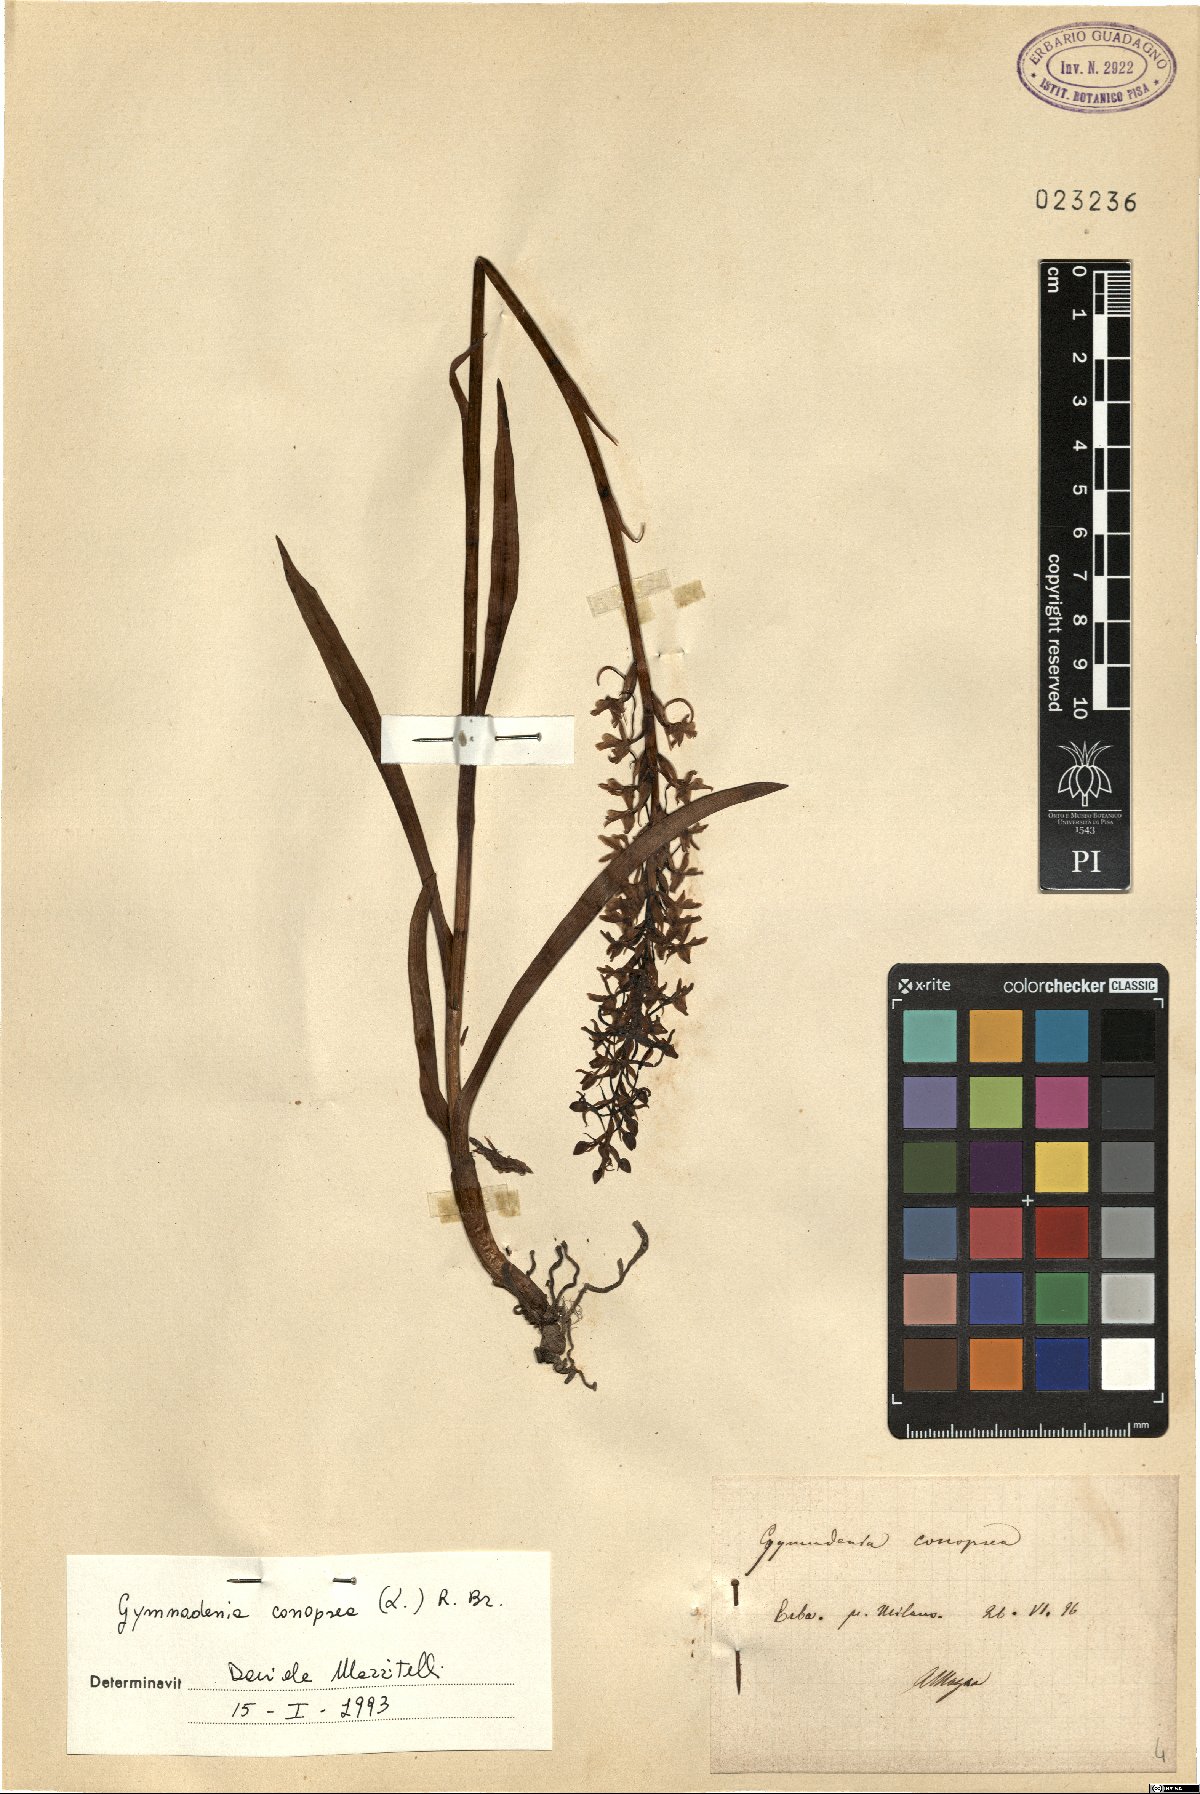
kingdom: Plantae
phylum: Tracheophyta
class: Liliopsida
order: Asparagales
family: Orchidaceae
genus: Gymnadenia
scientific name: Gymnadenia conopsea
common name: Fragrant orchid
